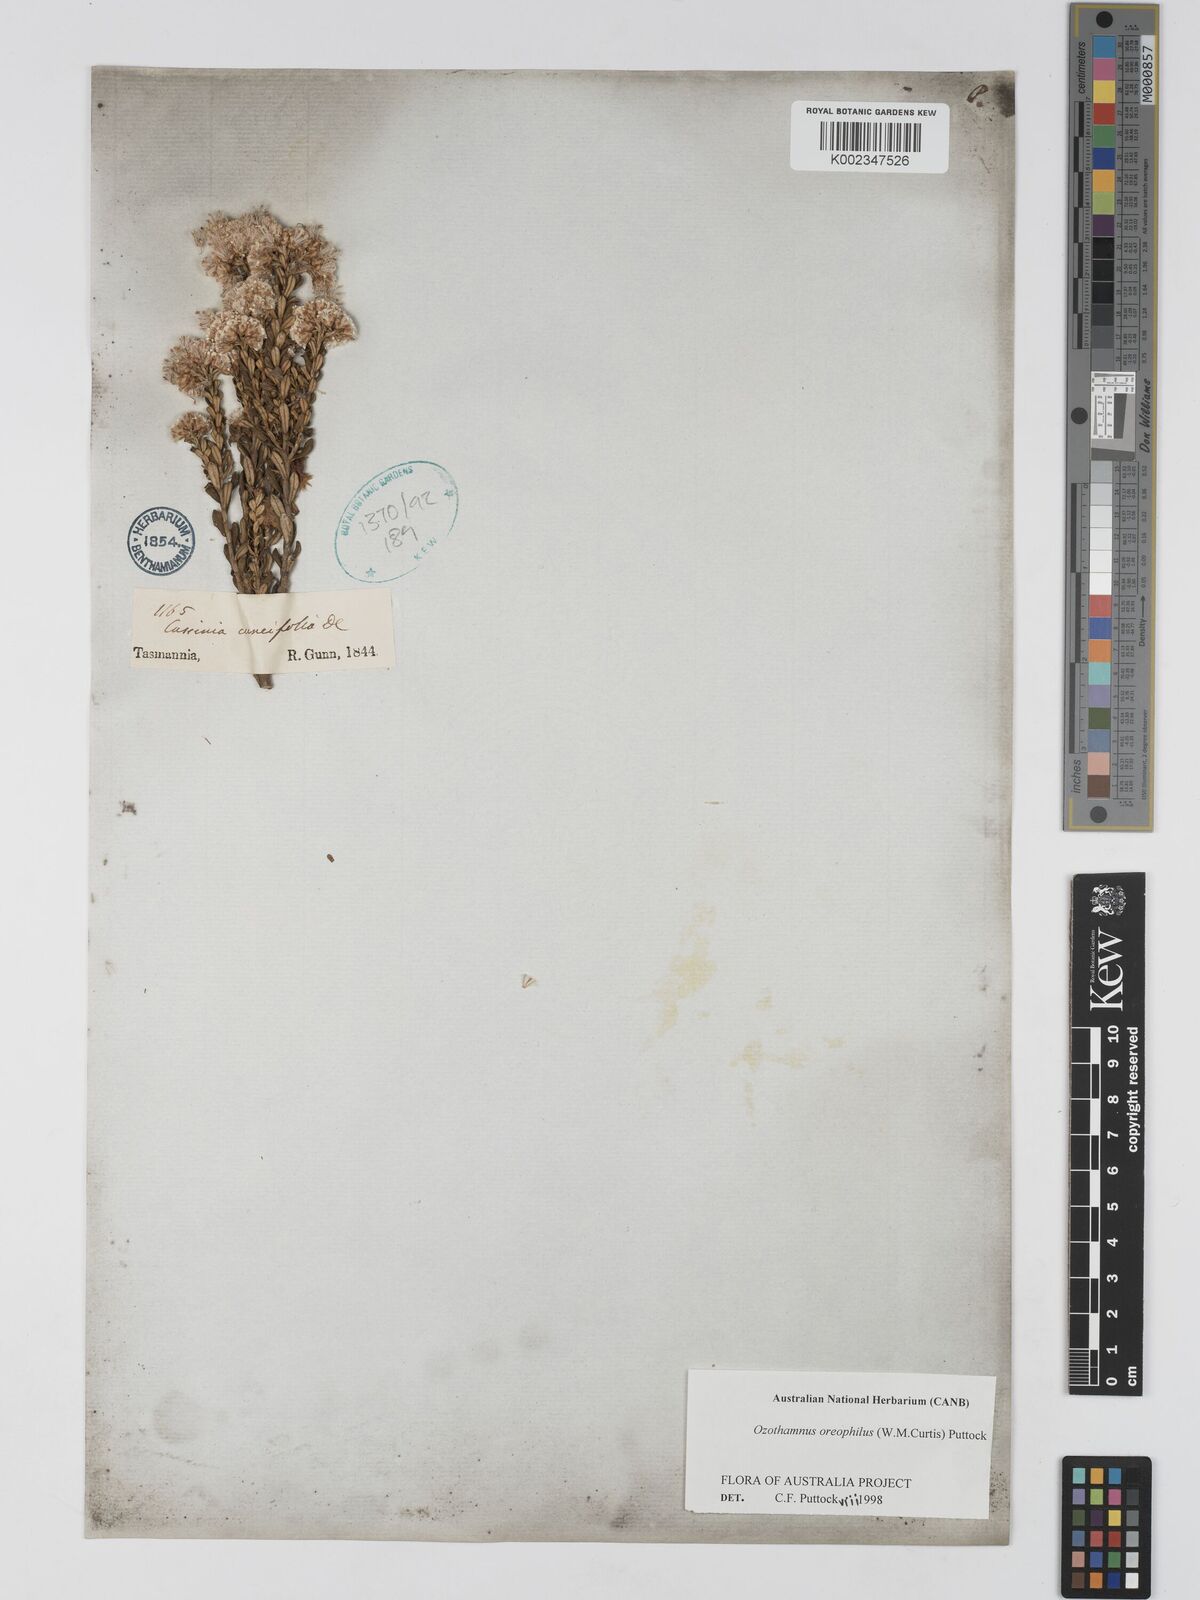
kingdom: Plantae
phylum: Tracheophyta
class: Magnoliopsida
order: Asterales
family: Asteraceae
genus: Ozothamnus
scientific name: Ozothamnus
